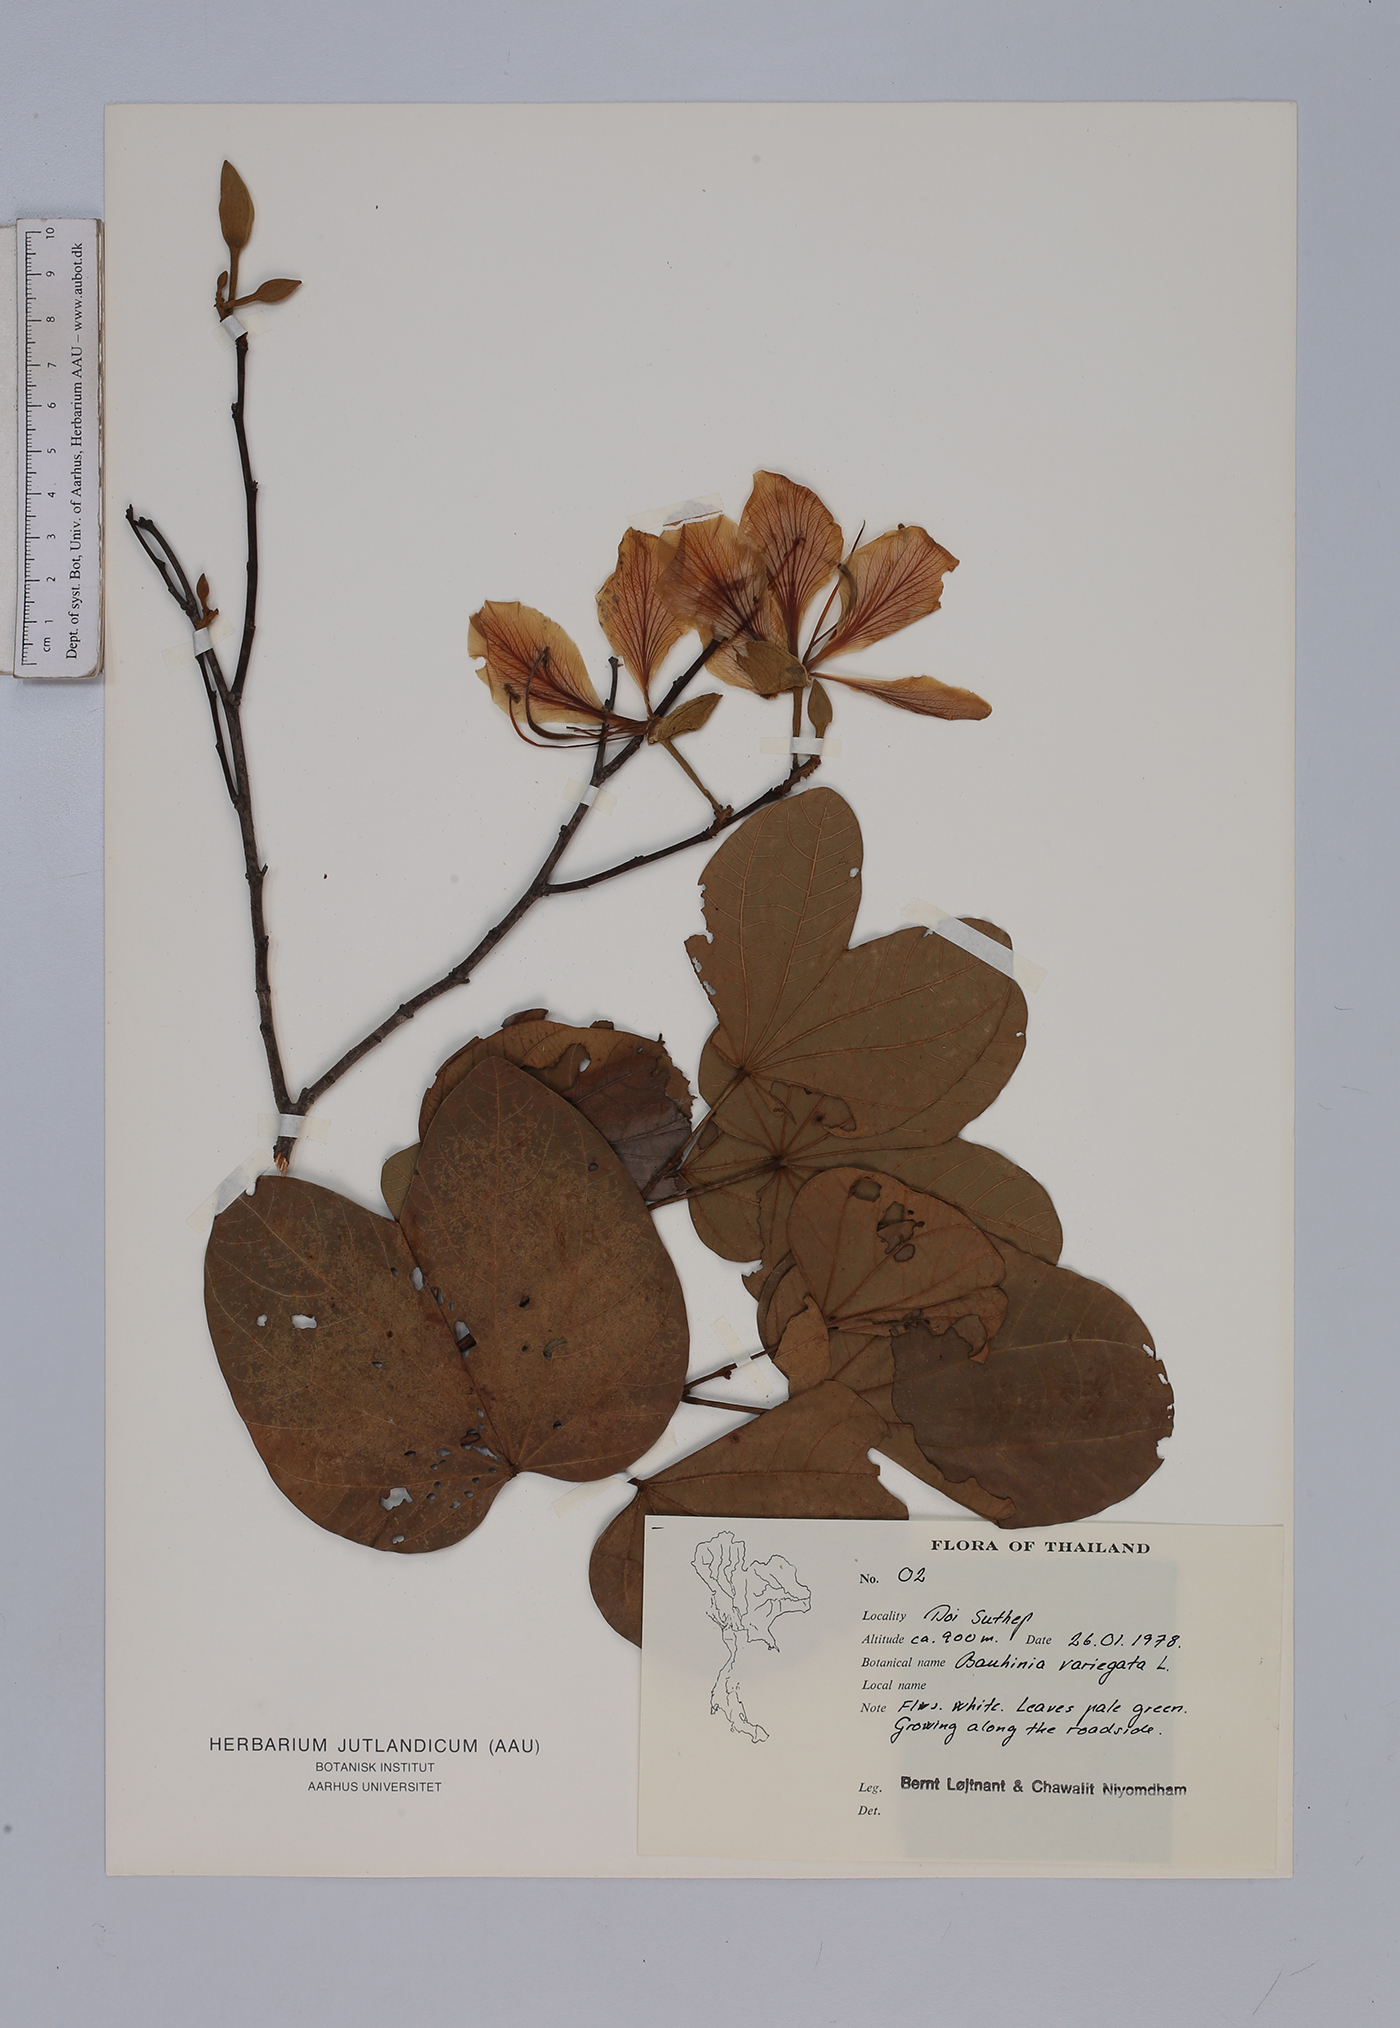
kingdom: Plantae
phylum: Tracheophyta
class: Magnoliopsida
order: Fabales
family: Fabaceae
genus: Bauhinia
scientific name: Bauhinia variegata
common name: Mountain ebony
